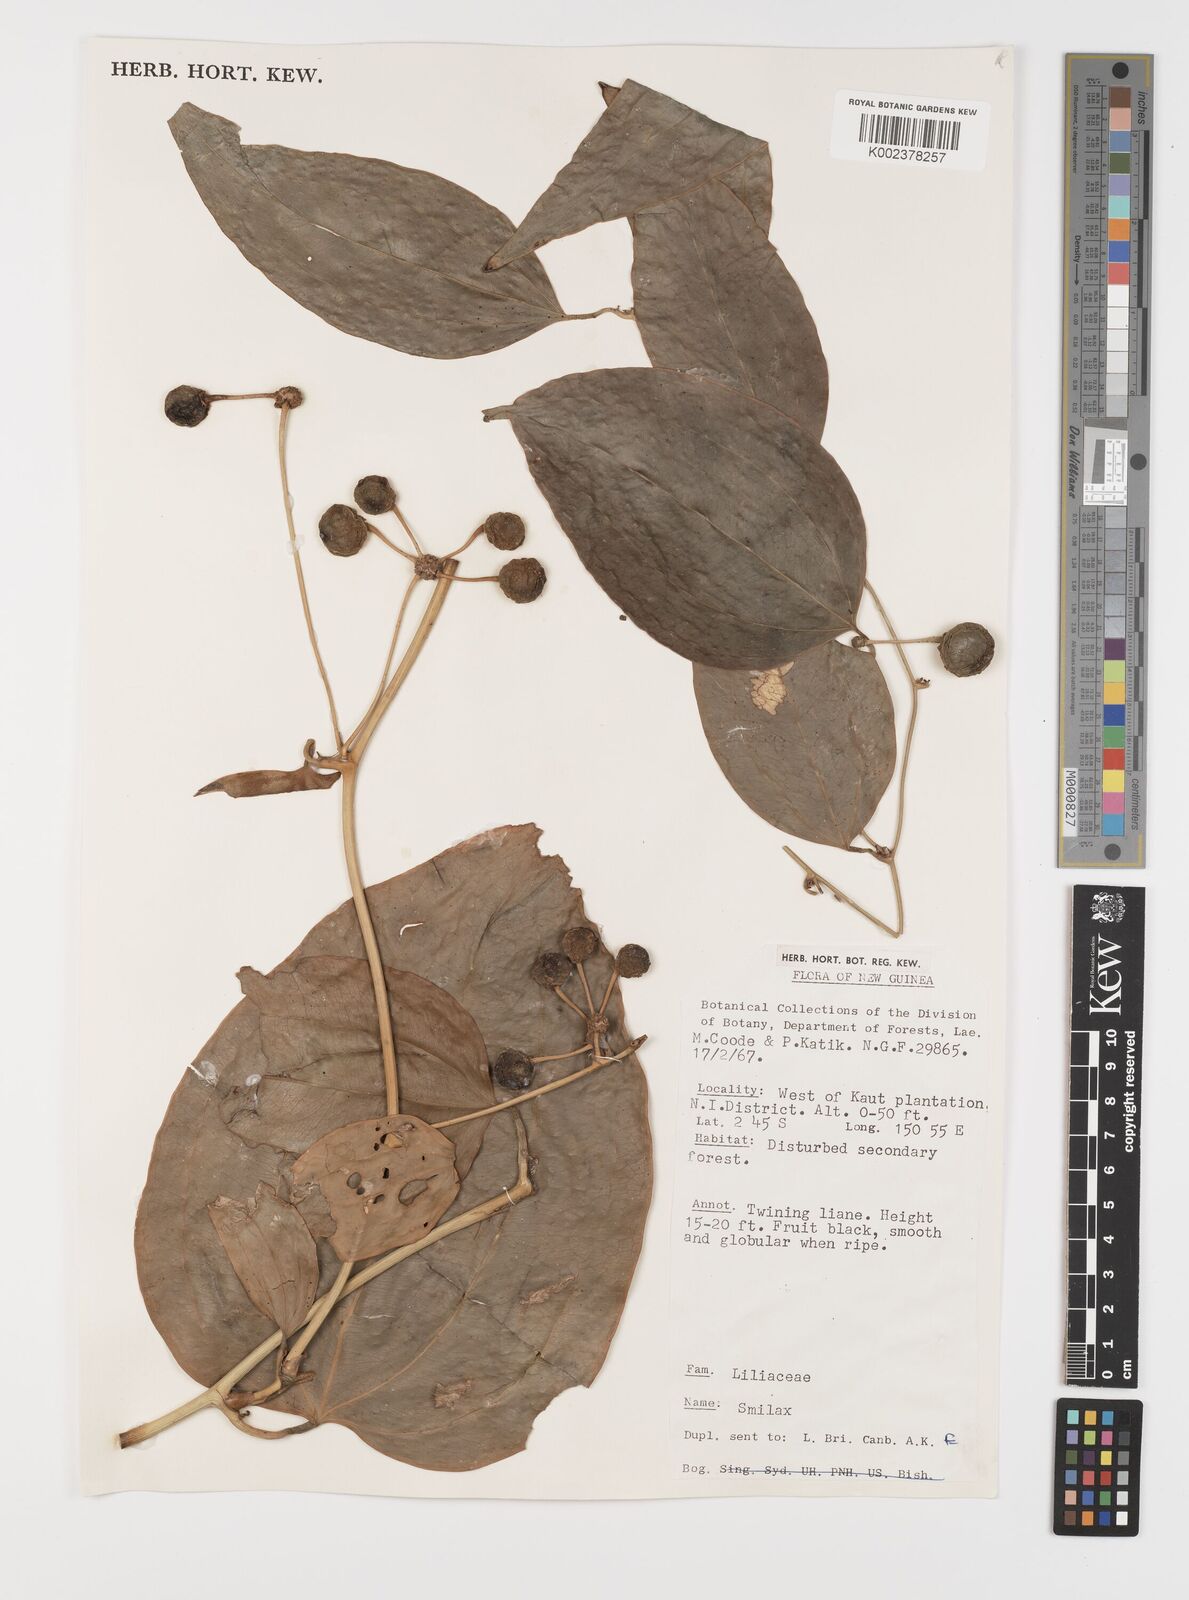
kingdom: Plantae
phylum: Tracheophyta
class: Liliopsida
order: Liliales
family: Smilacaceae
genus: Smilax
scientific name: Smilax
